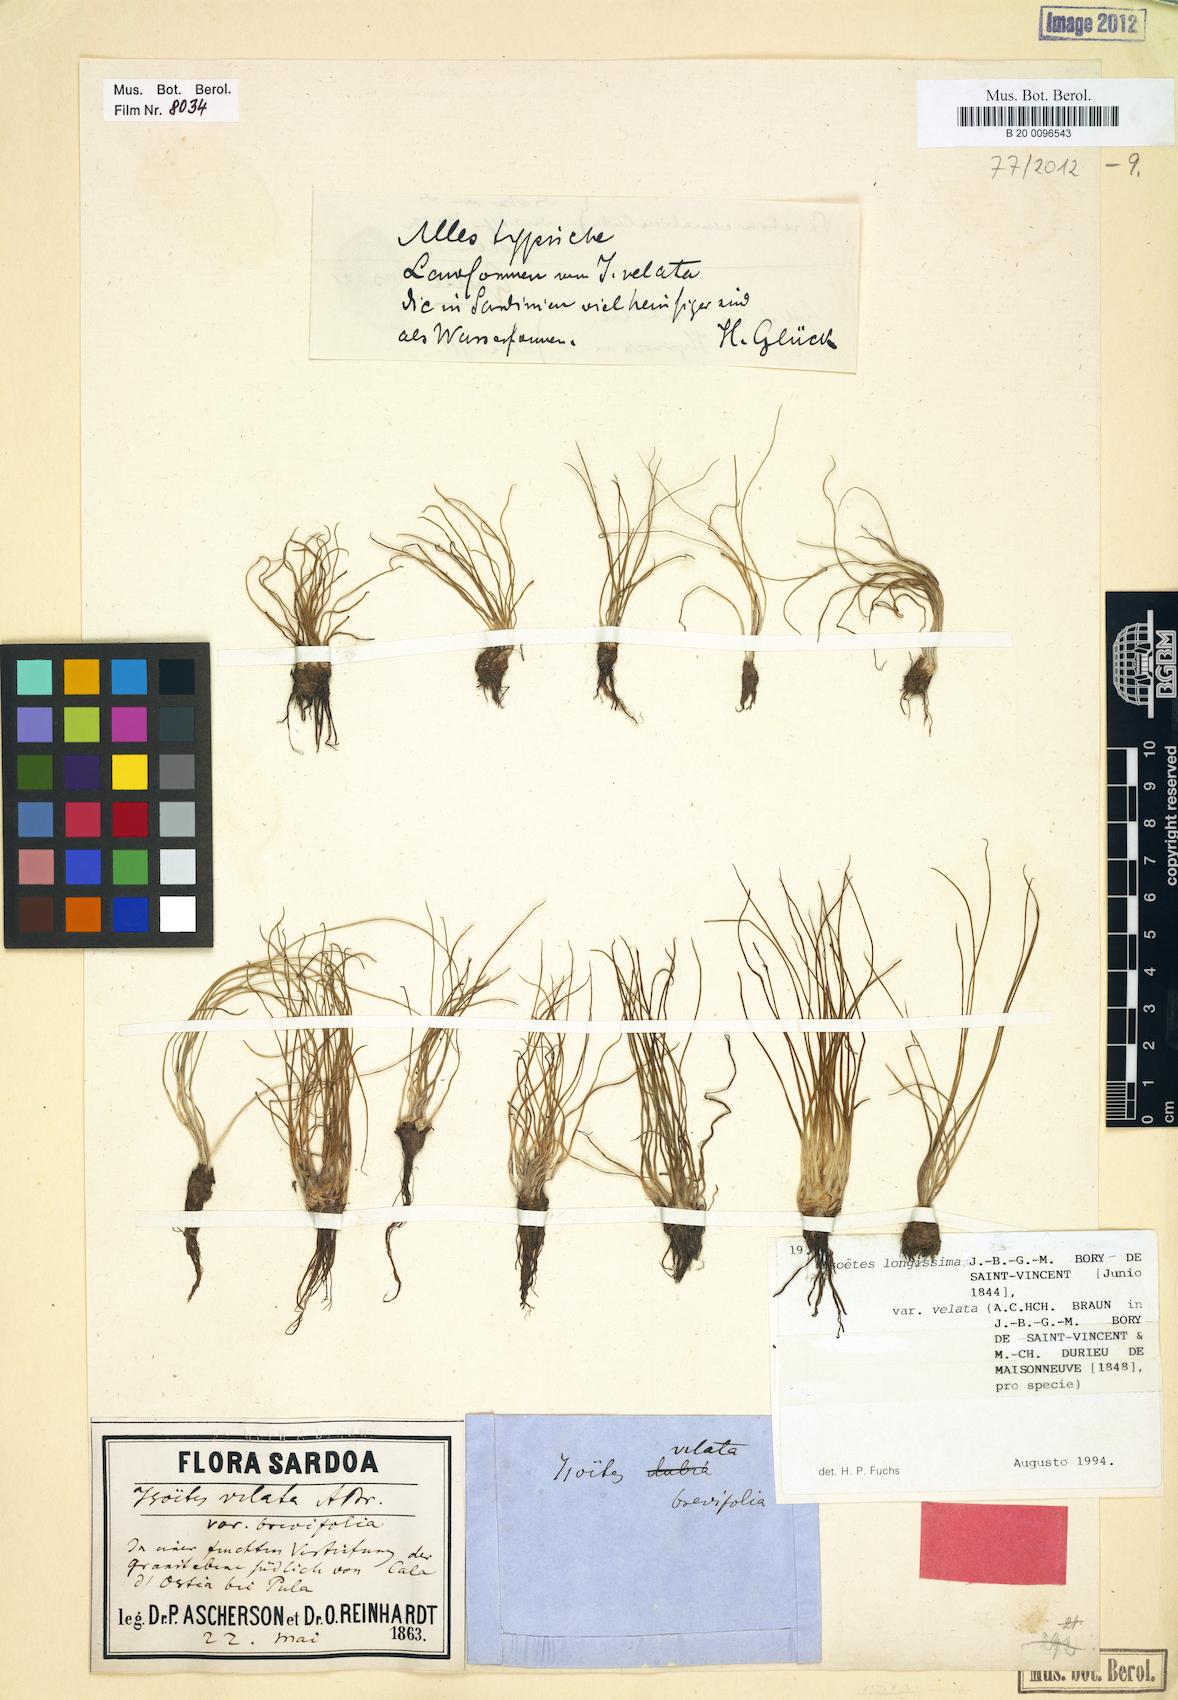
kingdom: Plantae
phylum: Tracheophyta
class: Lycopodiopsida
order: Isoetales
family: Isoetaceae
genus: Isoetes
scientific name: Isoetes longissima
